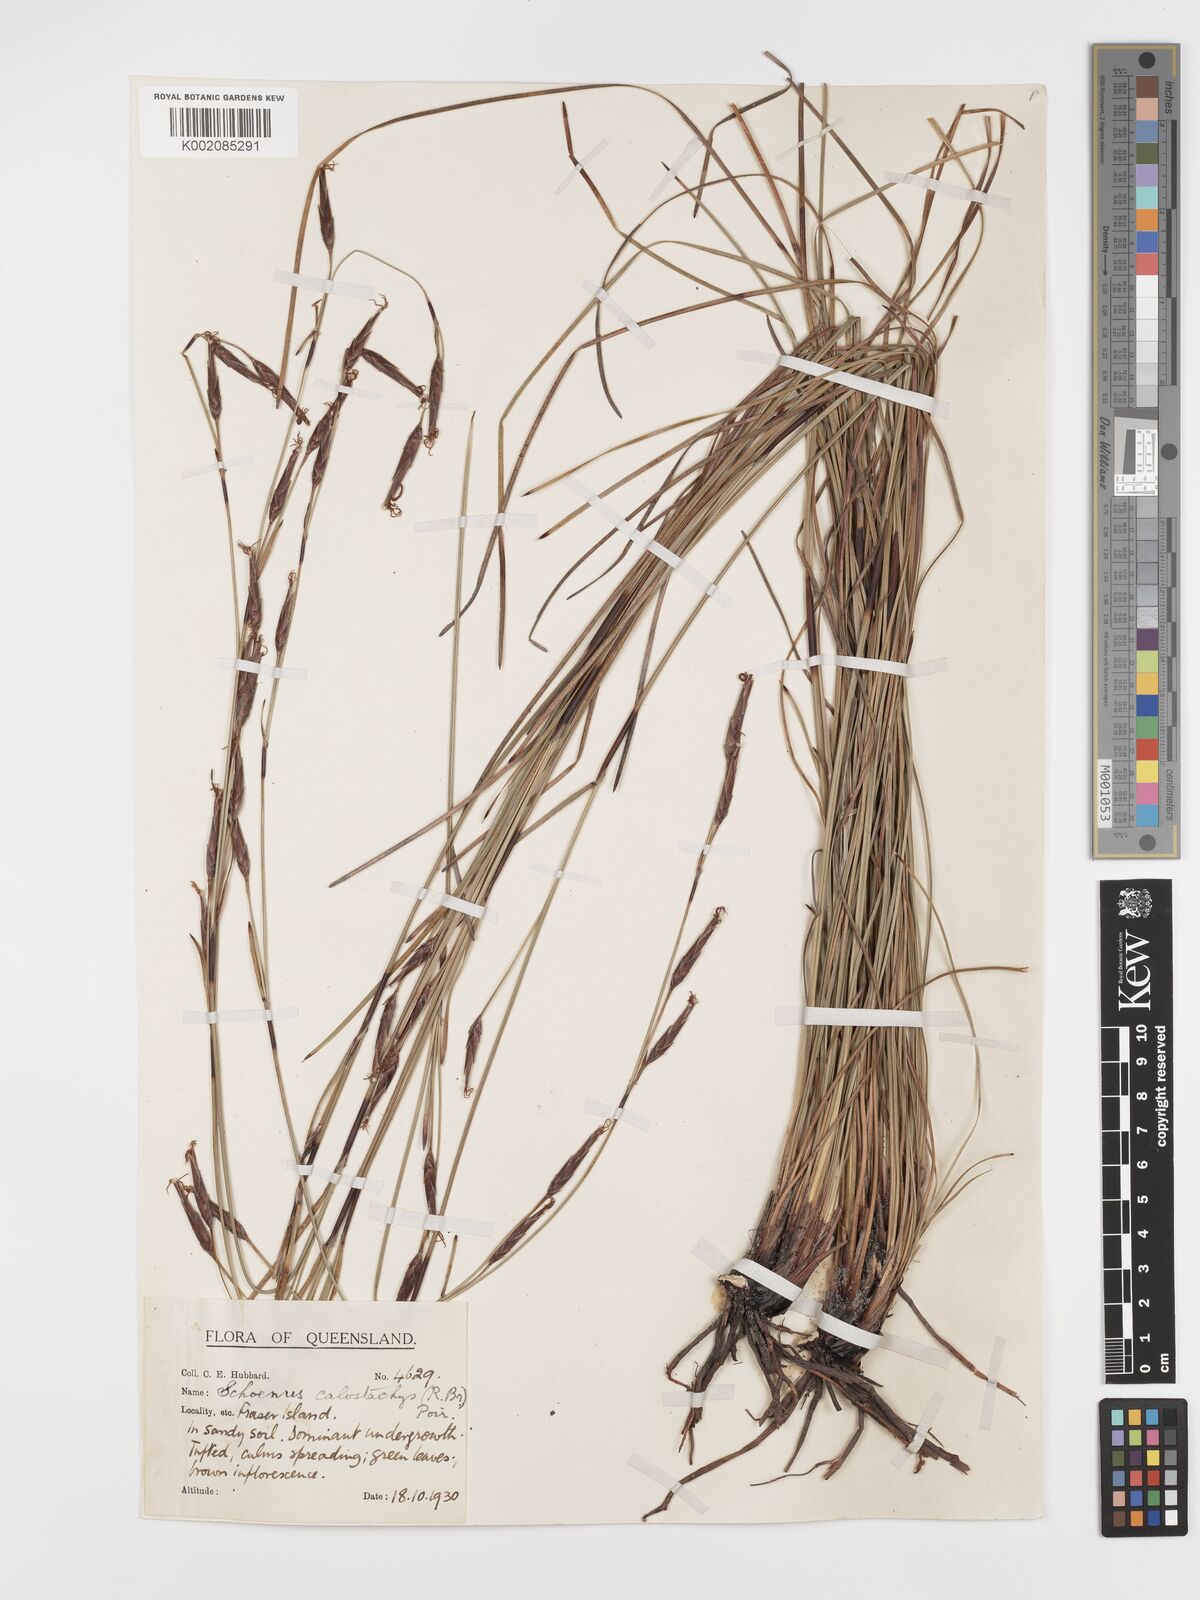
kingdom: Plantae
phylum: Tracheophyta
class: Liliopsida
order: Poales
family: Cyperaceae
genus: Schoenus
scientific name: Schoenus calostachyus
